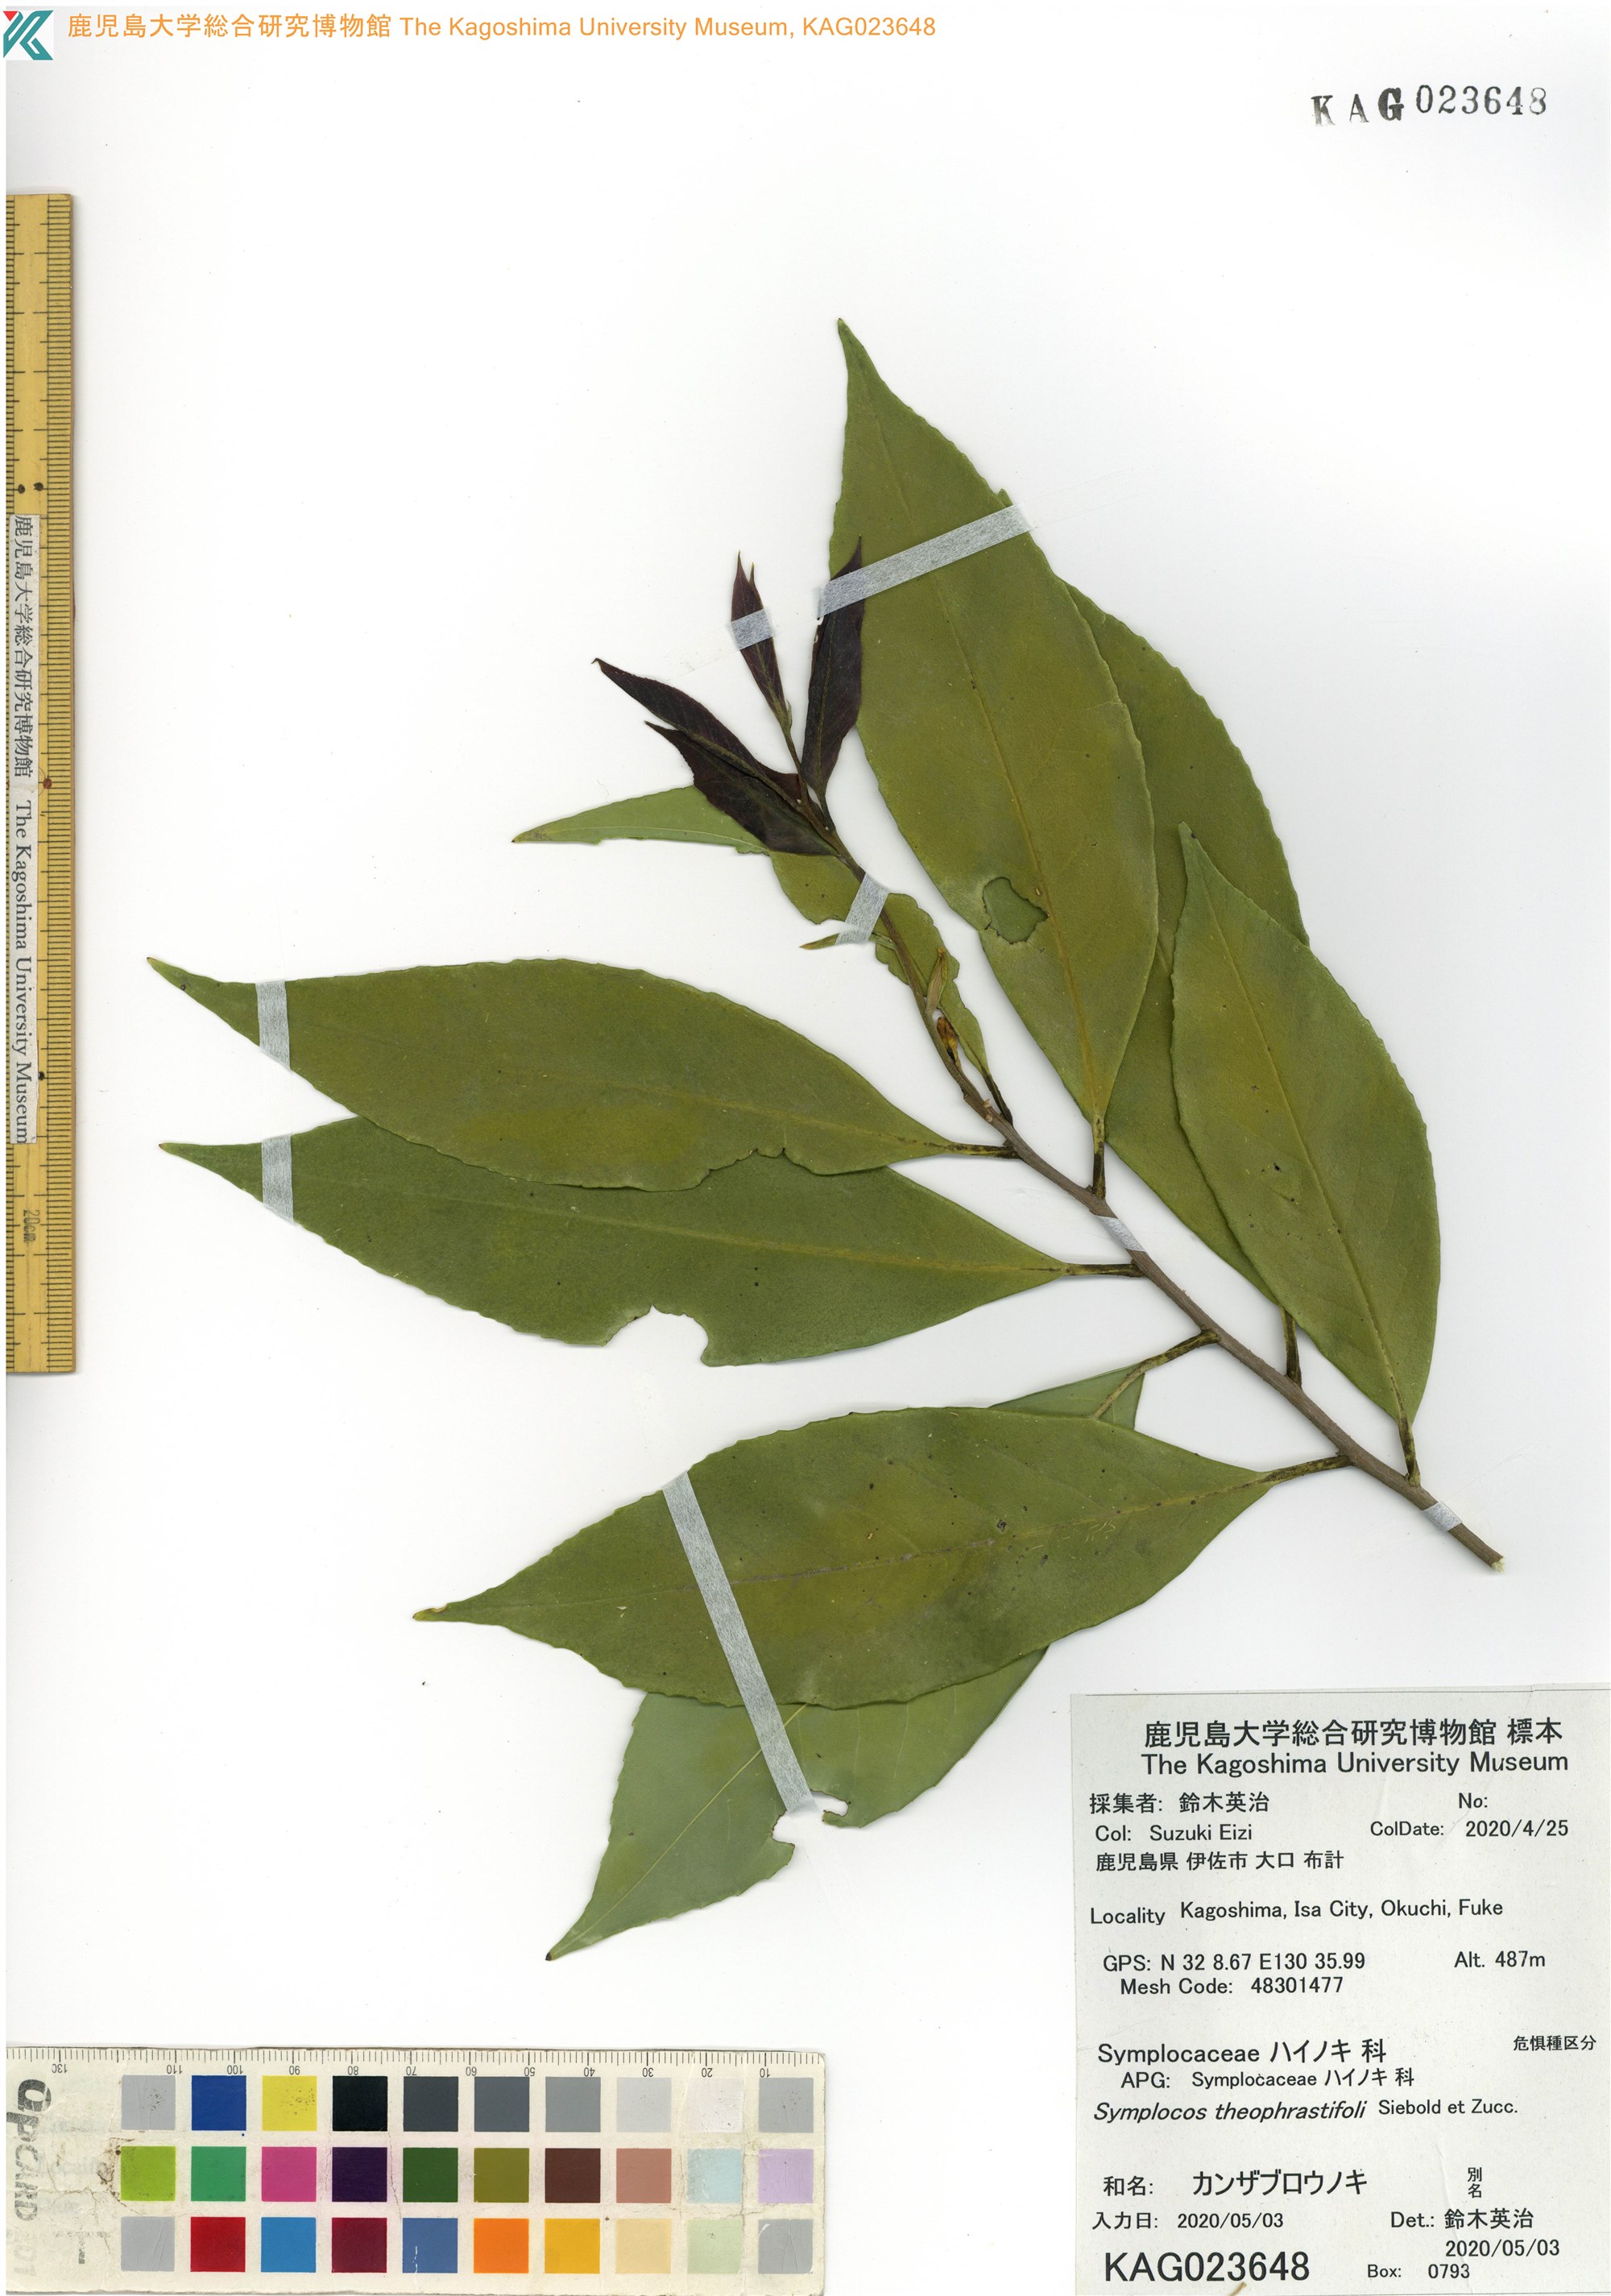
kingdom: Plantae
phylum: Tracheophyta
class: Magnoliopsida
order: Ericales
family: Symplocaceae
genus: Symplocos
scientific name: Symplocos theophrastifolia
